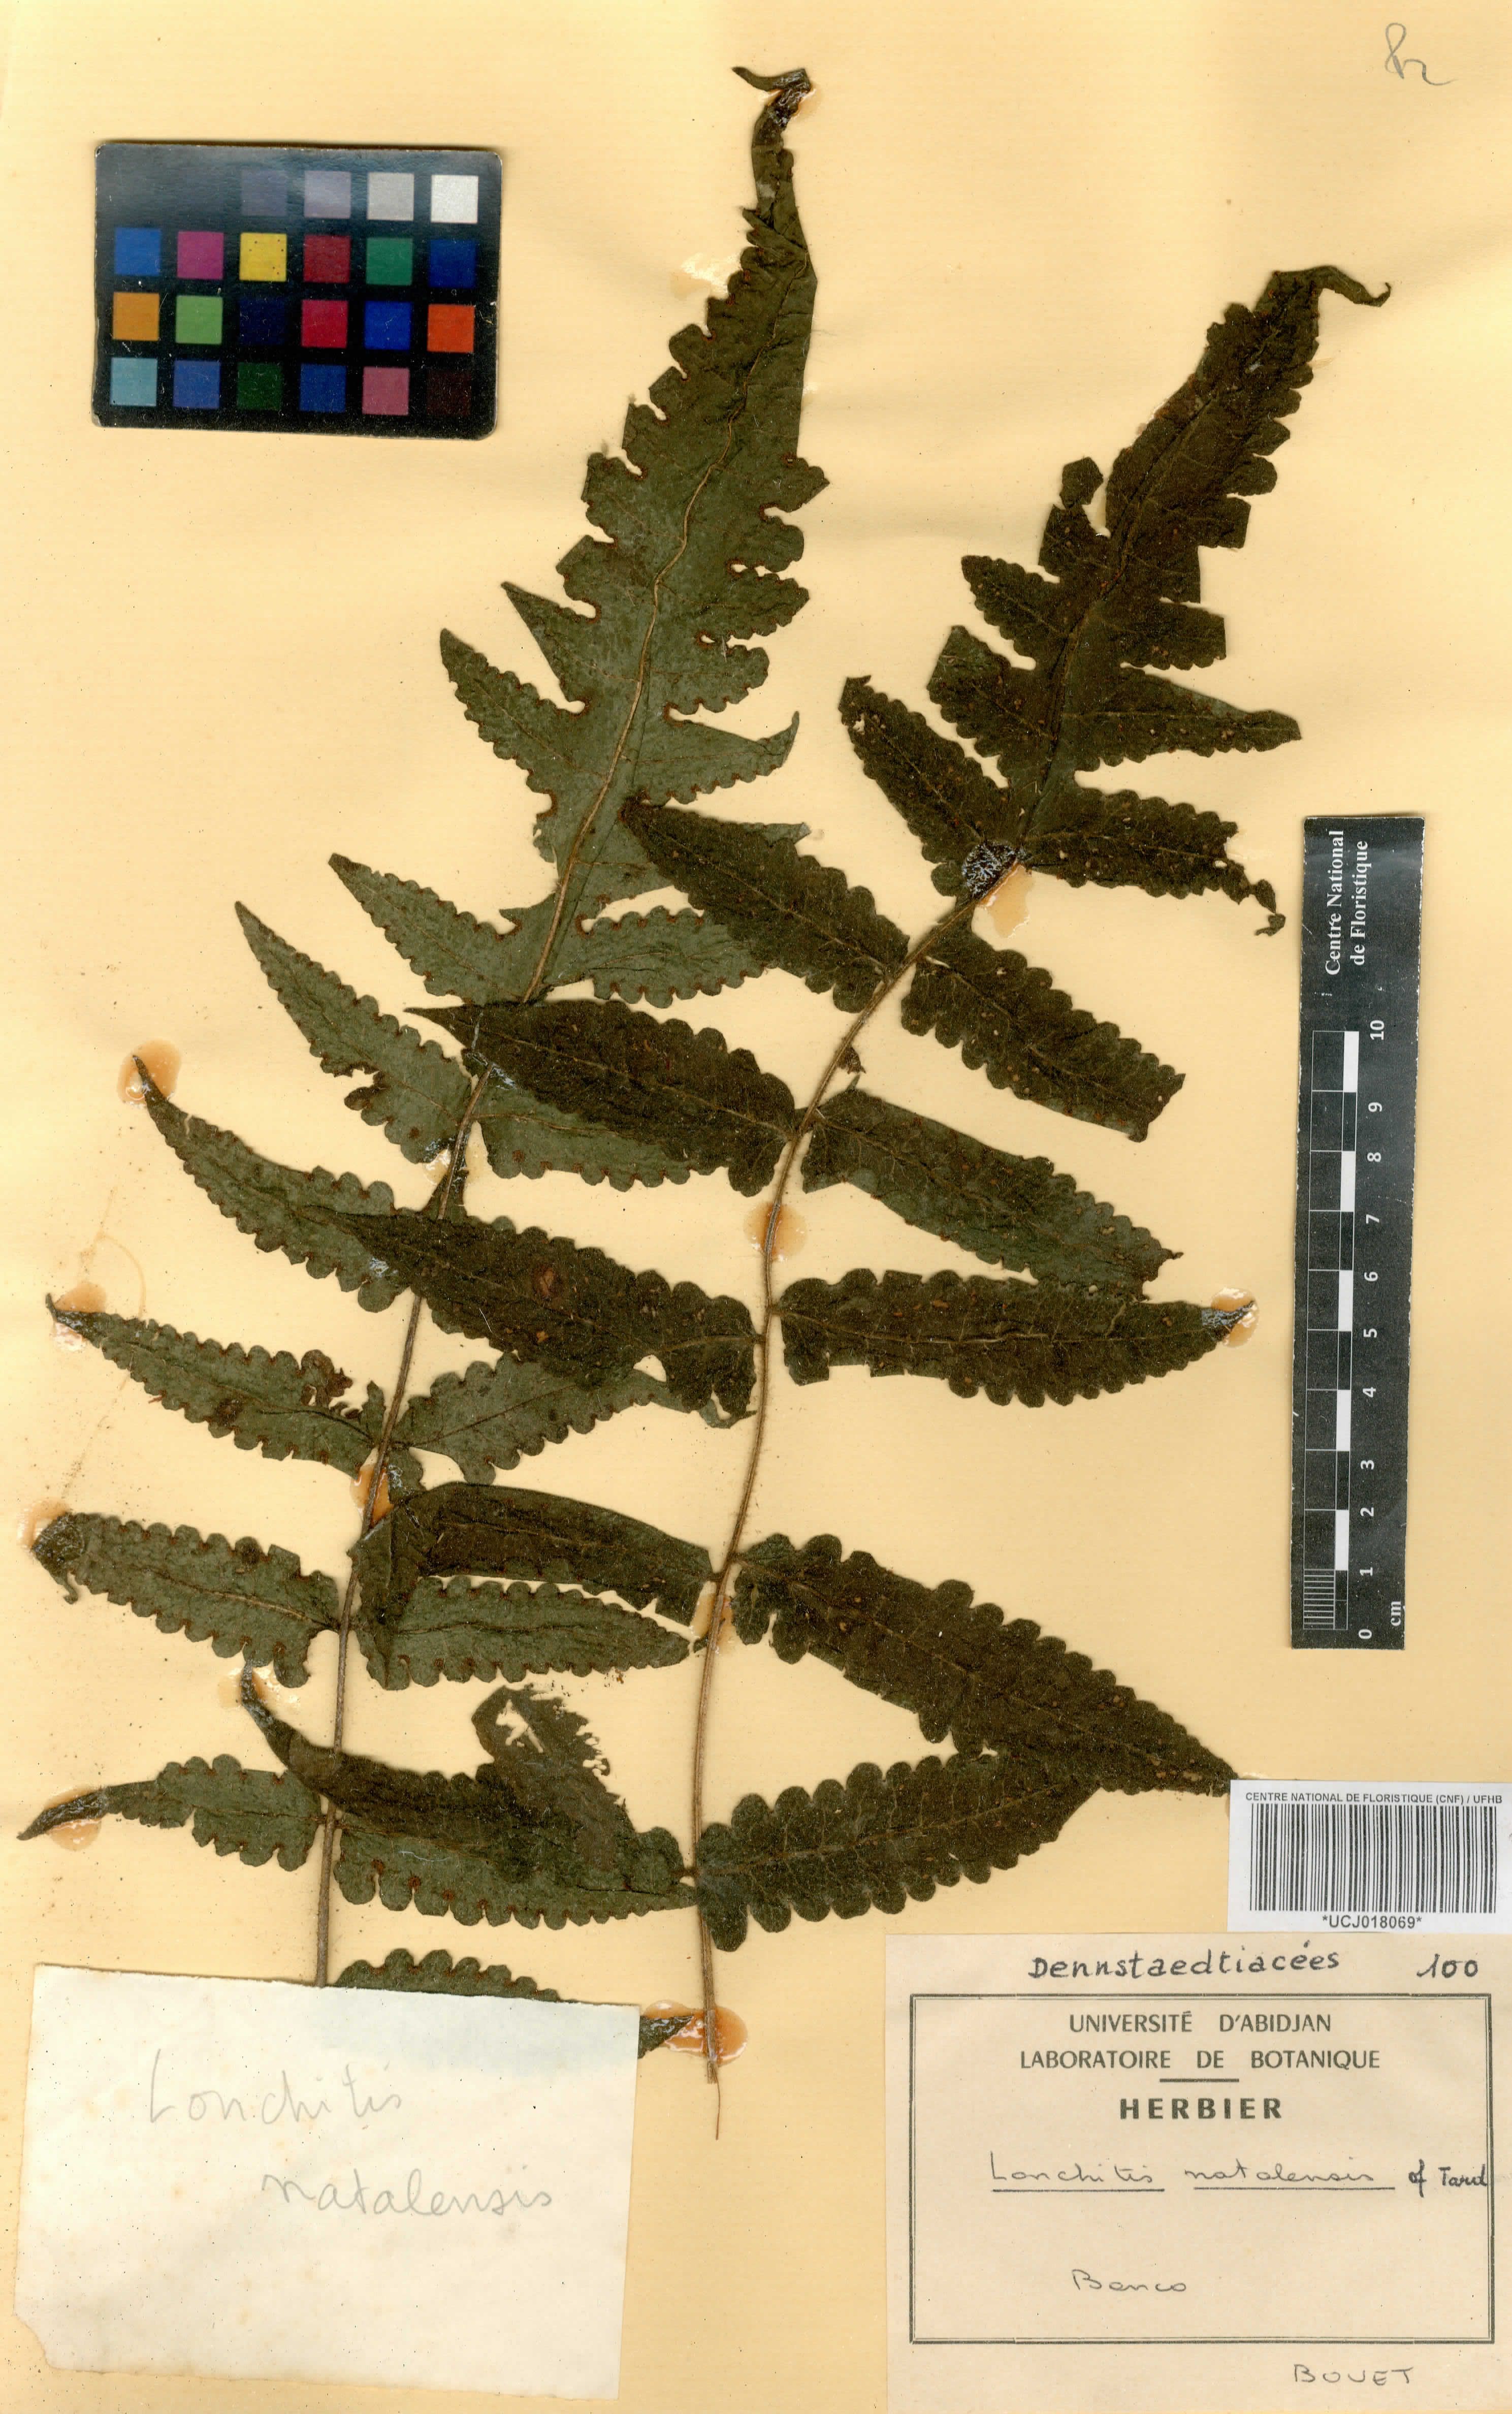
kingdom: Plantae
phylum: Tracheophyta
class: Polypodiopsida
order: Polypodiales
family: Dennstaedtiaceae
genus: Blotiella
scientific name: Blotiella natalensis
